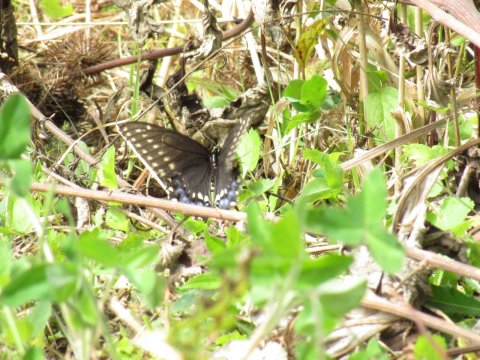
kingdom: Animalia
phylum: Arthropoda
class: Insecta
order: Lepidoptera
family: Papilionidae
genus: Papilio
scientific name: Papilio polyxenes
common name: Black Swallowtail
